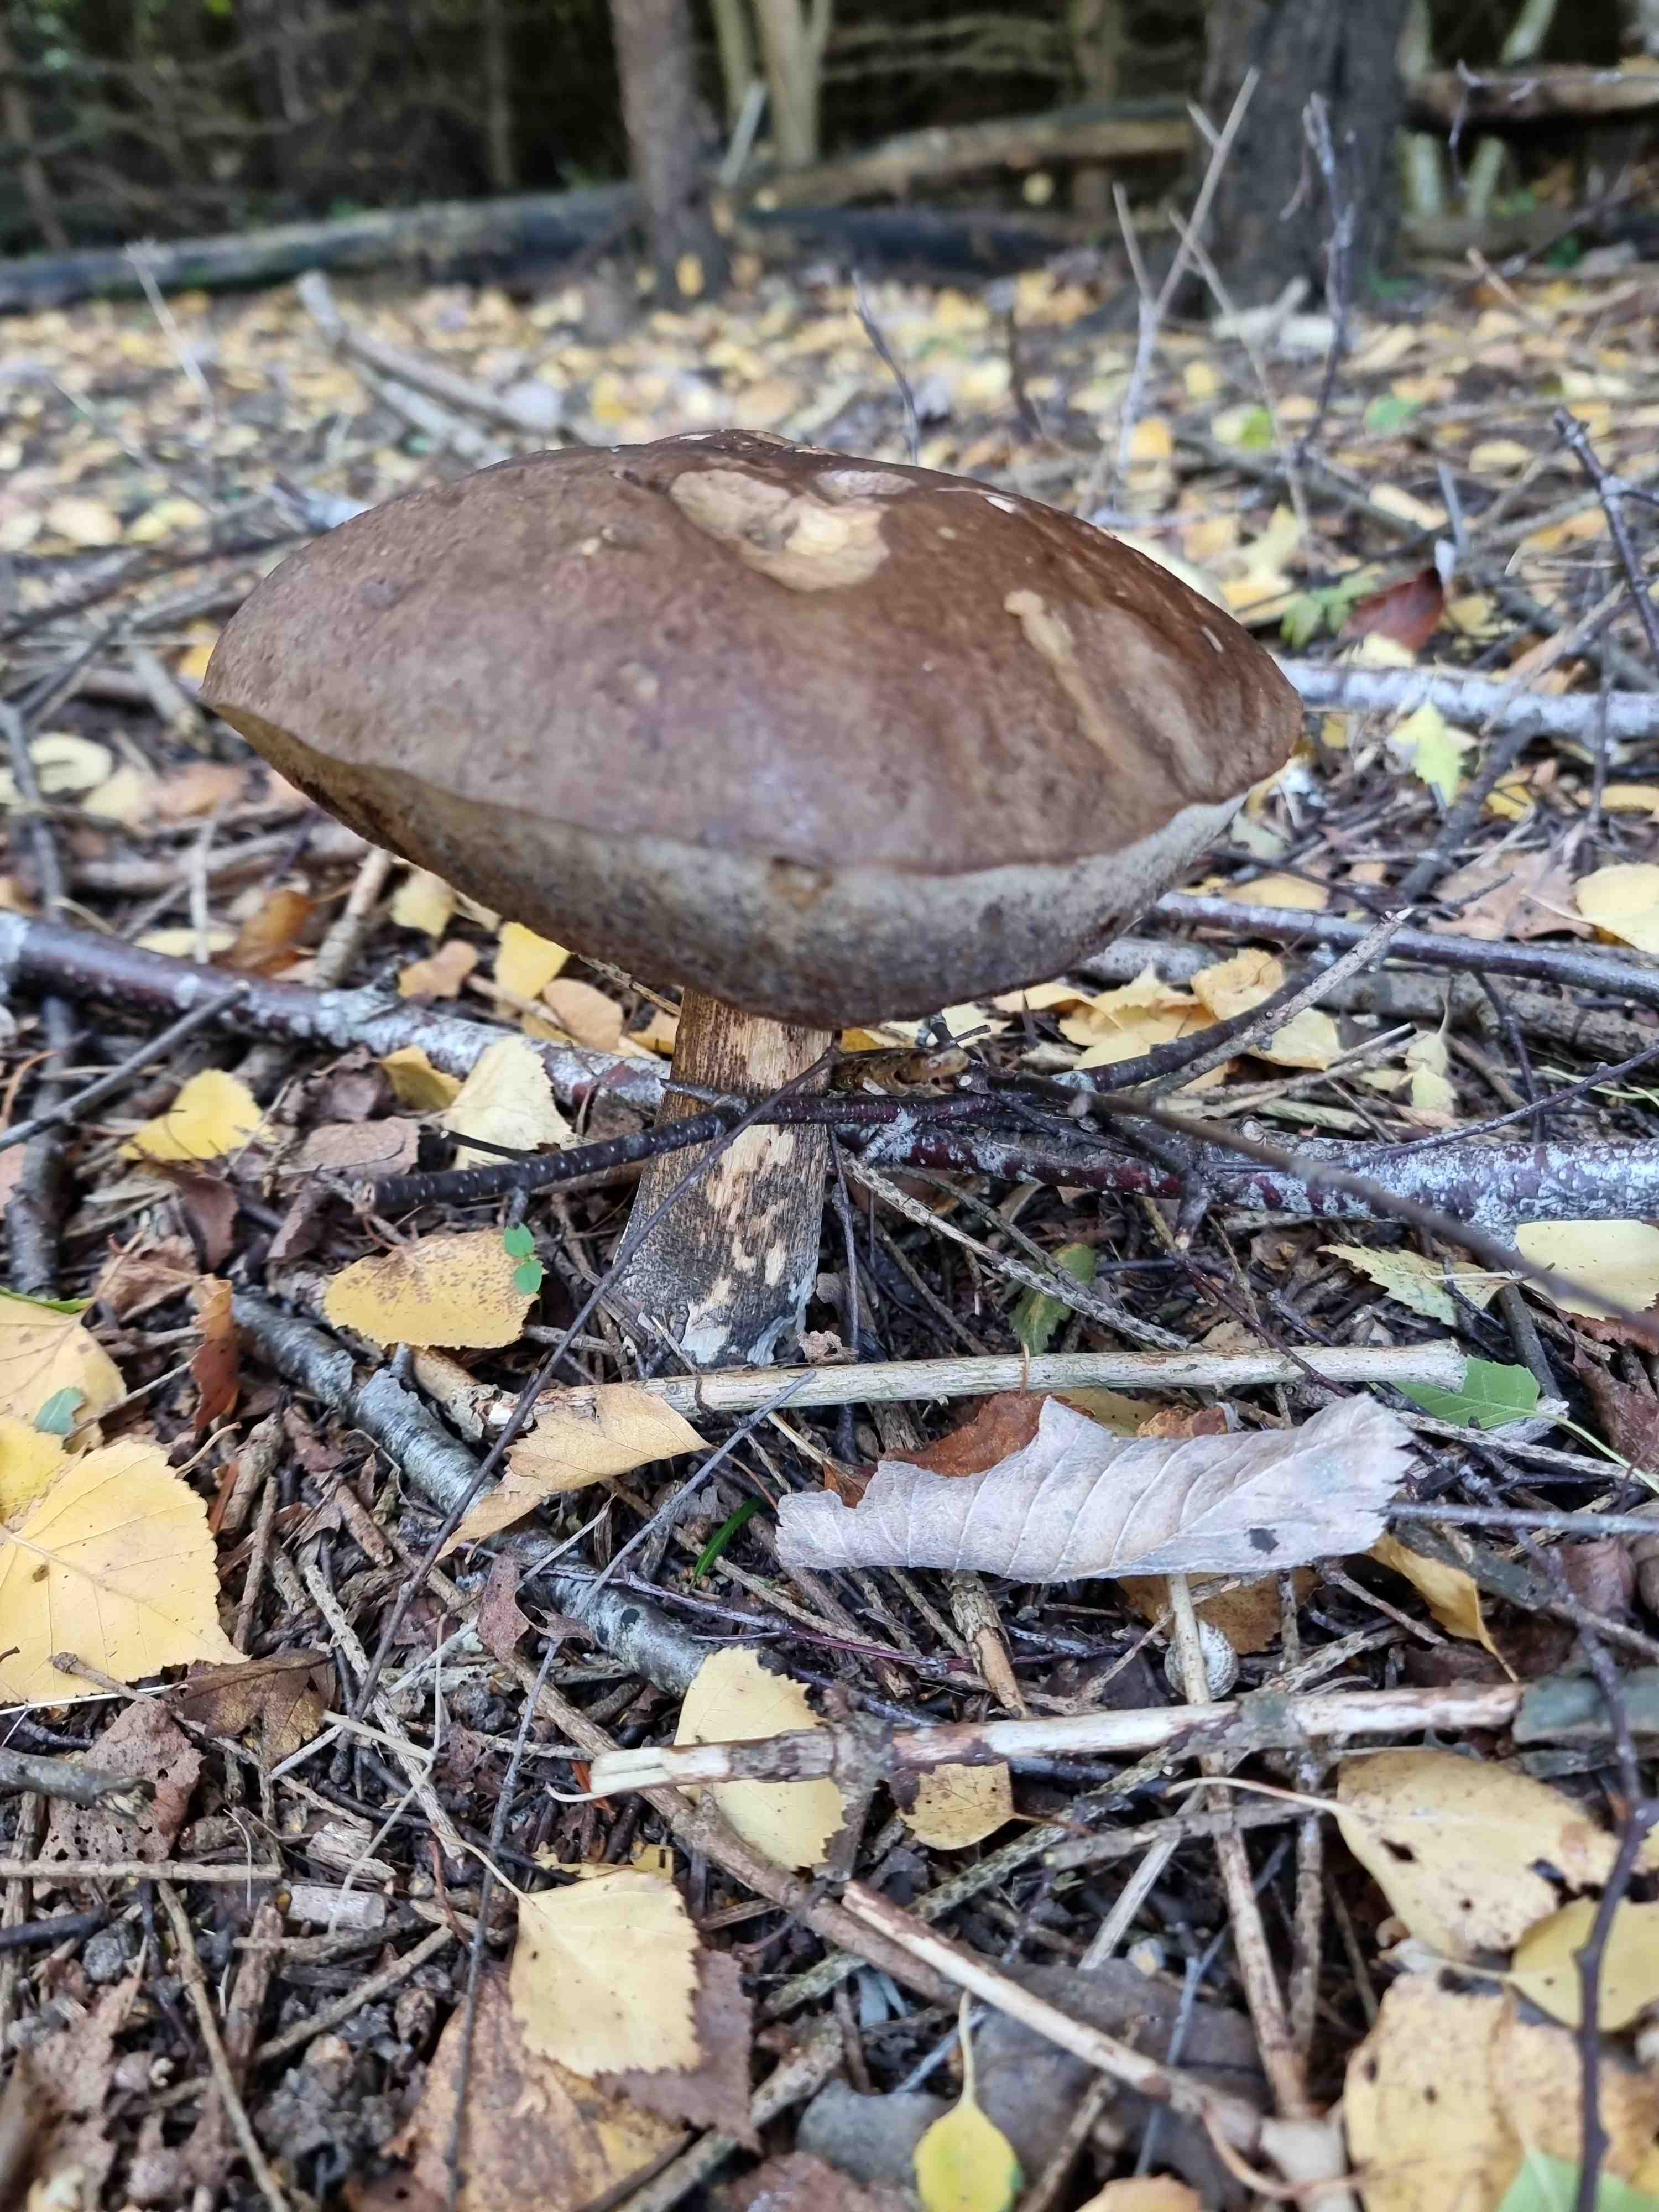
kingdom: Fungi
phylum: Basidiomycota
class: Agaricomycetes
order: Boletales
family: Boletaceae
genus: Leccinum
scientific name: Leccinum scabrum
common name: brun skælrørhat
